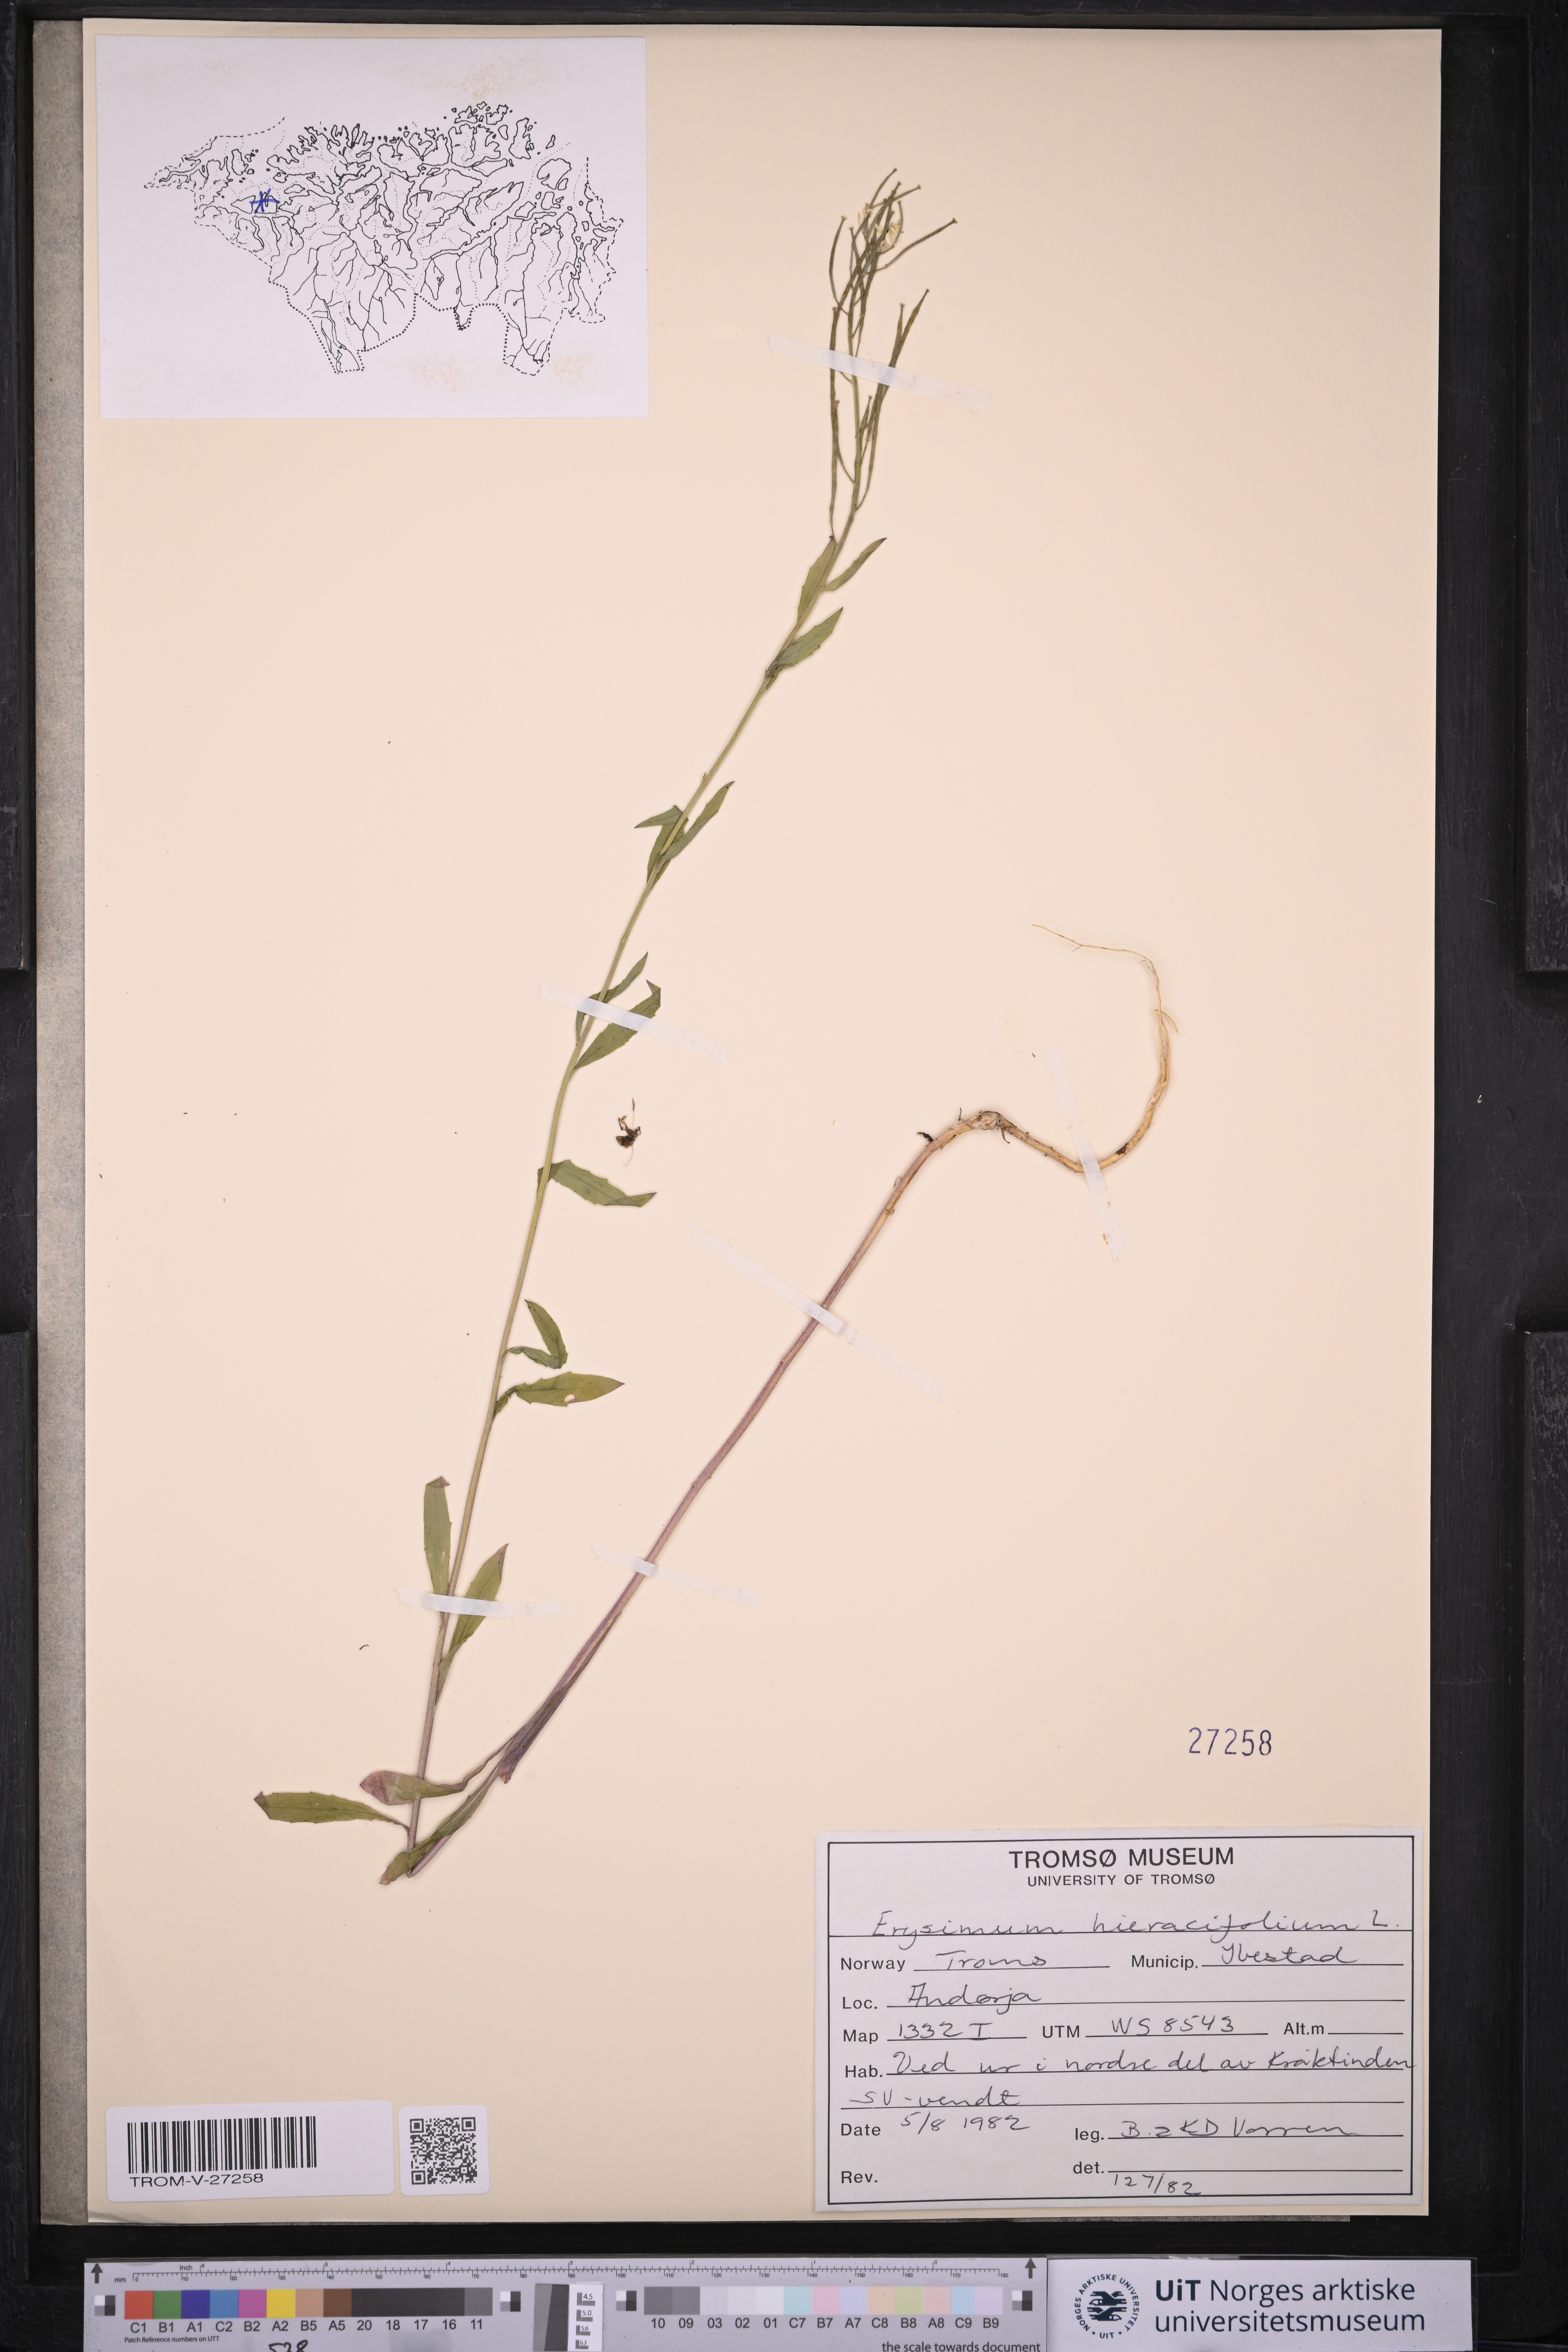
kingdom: Plantae
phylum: Tracheophyta
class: Magnoliopsida
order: Brassicales
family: Brassicaceae
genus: Erysimum
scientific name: Erysimum virgatum
